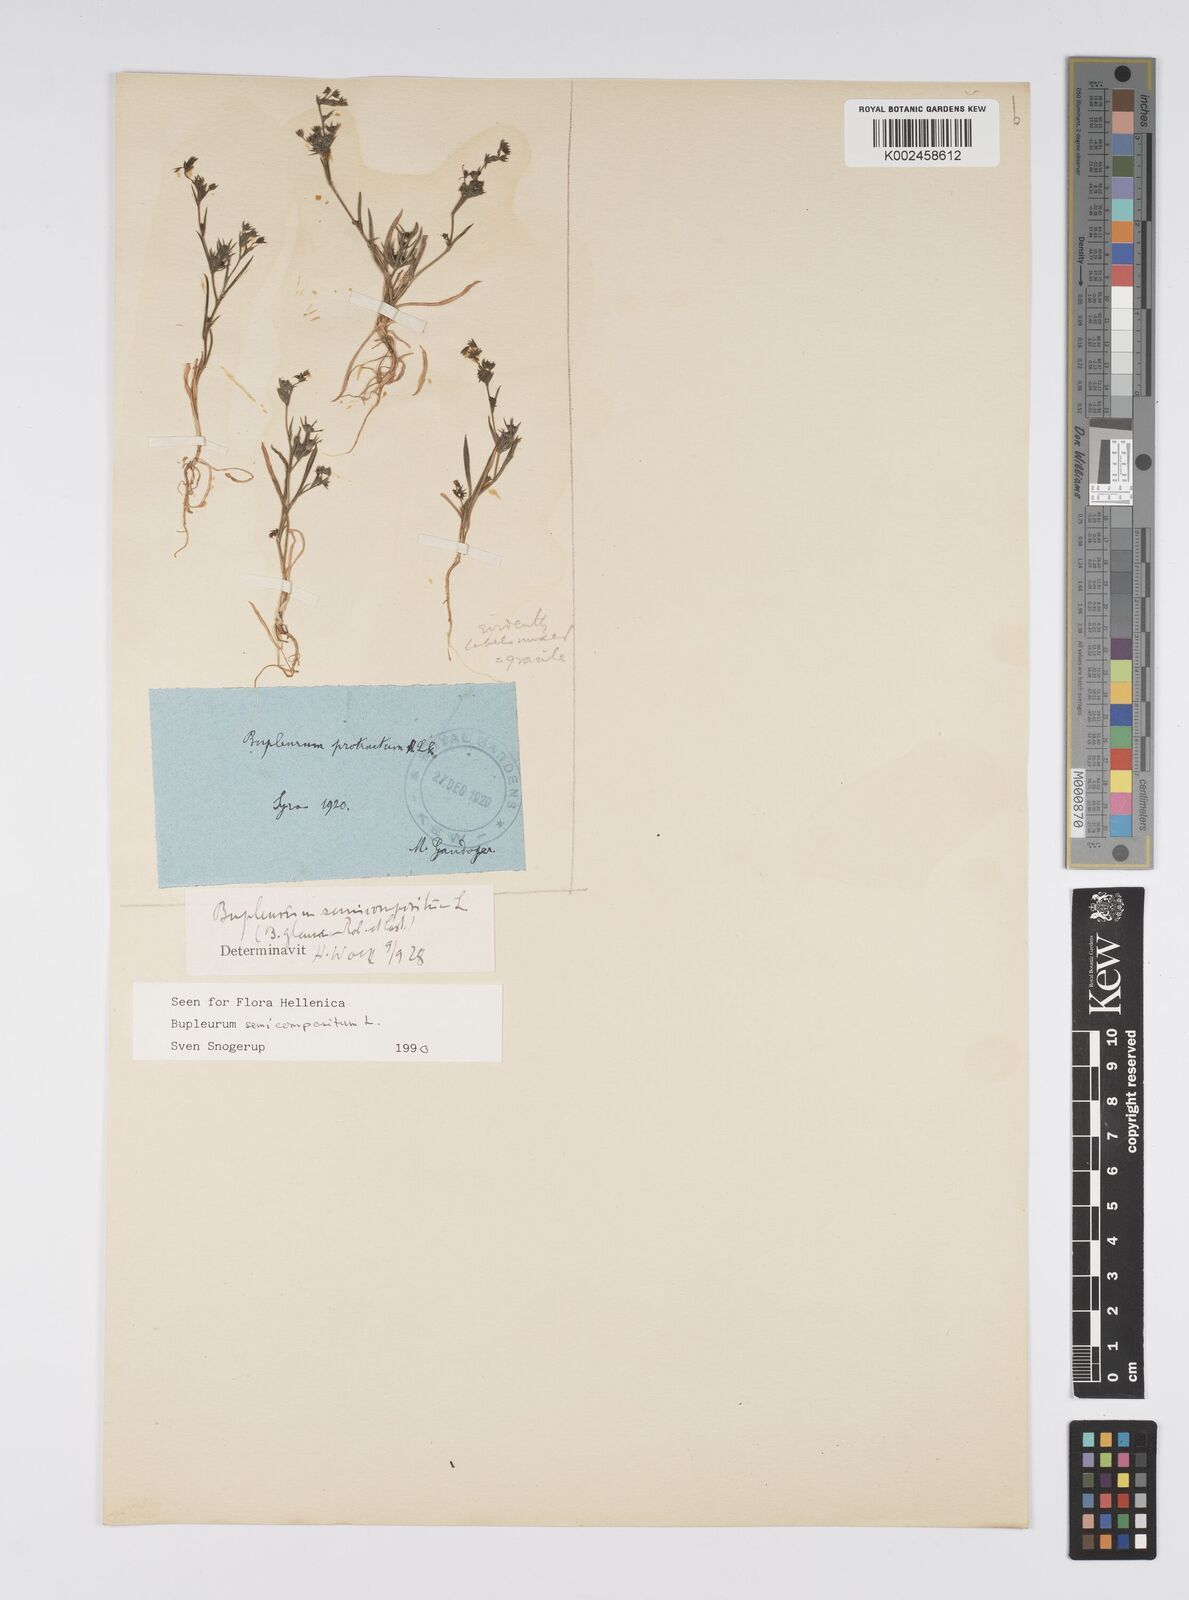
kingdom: Plantae
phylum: Tracheophyta
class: Magnoliopsida
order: Apiales
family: Apiaceae
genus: Bupleurum
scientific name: Bupleurum semicompositum
